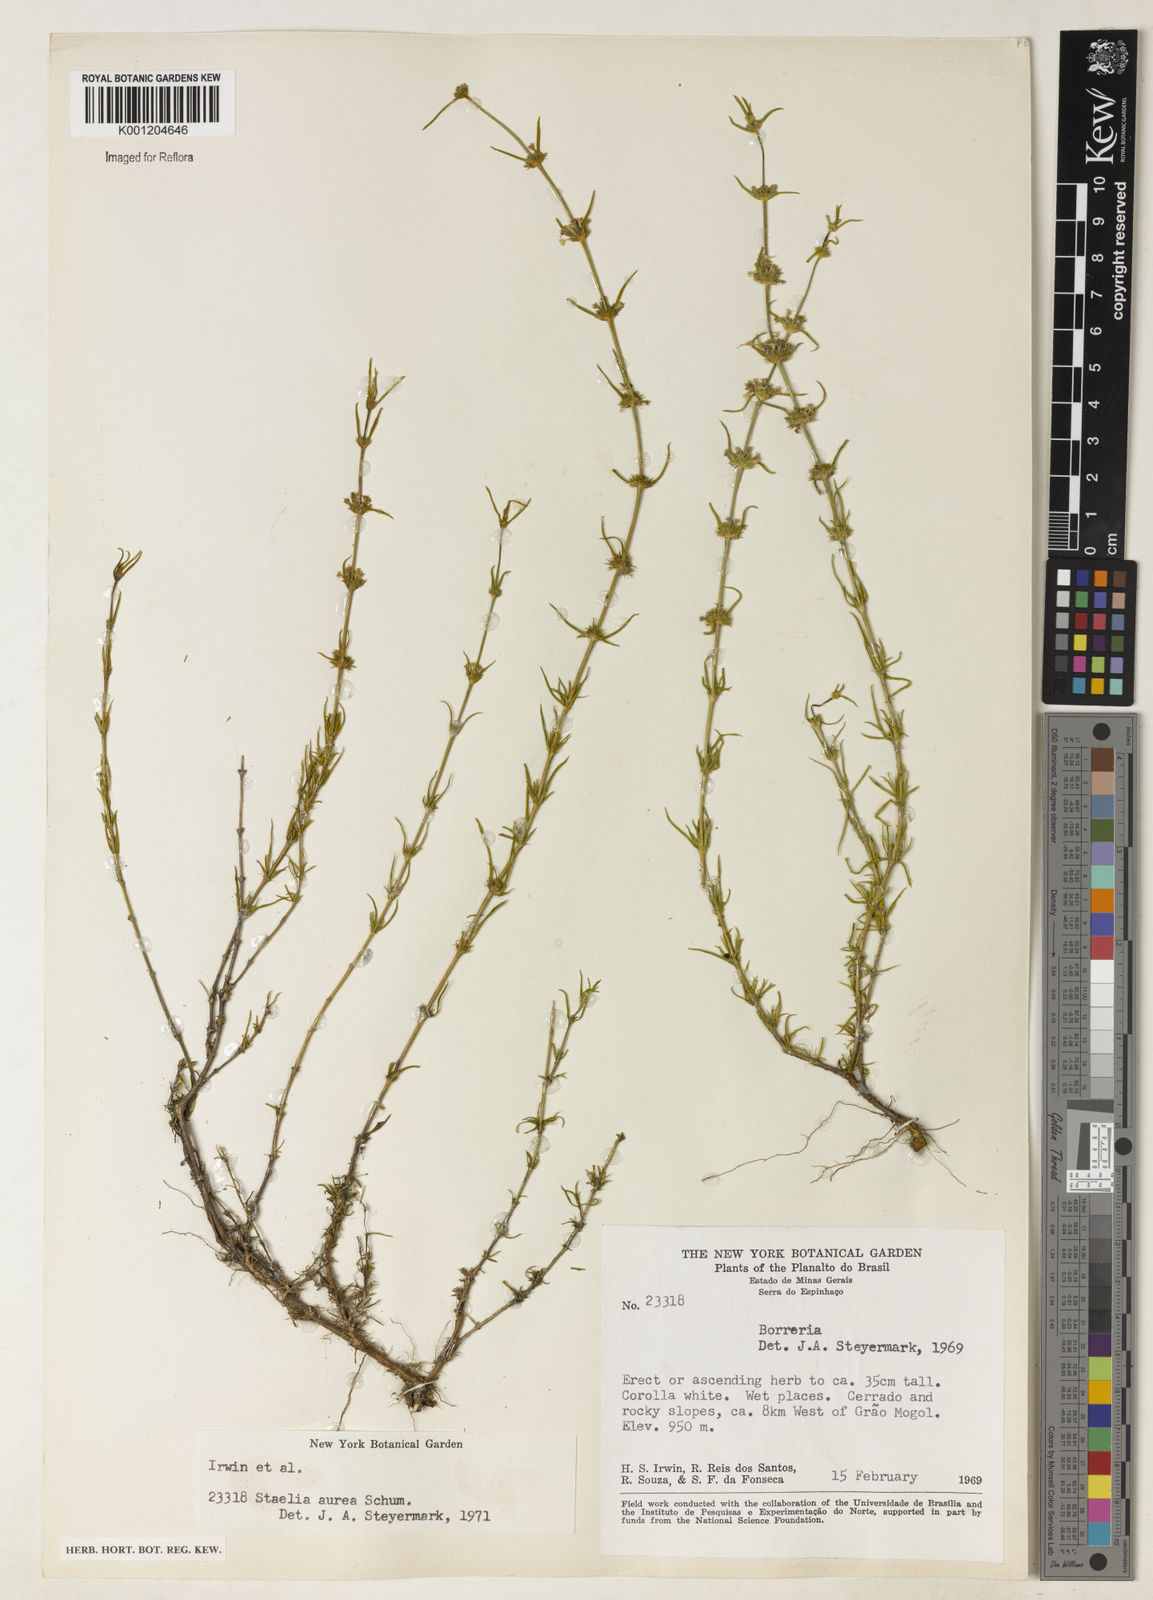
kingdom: Plantae
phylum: Tracheophyta
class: Magnoliopsida
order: Gentianales
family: Rubiaceae
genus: Staelia
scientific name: Staelia aurea
